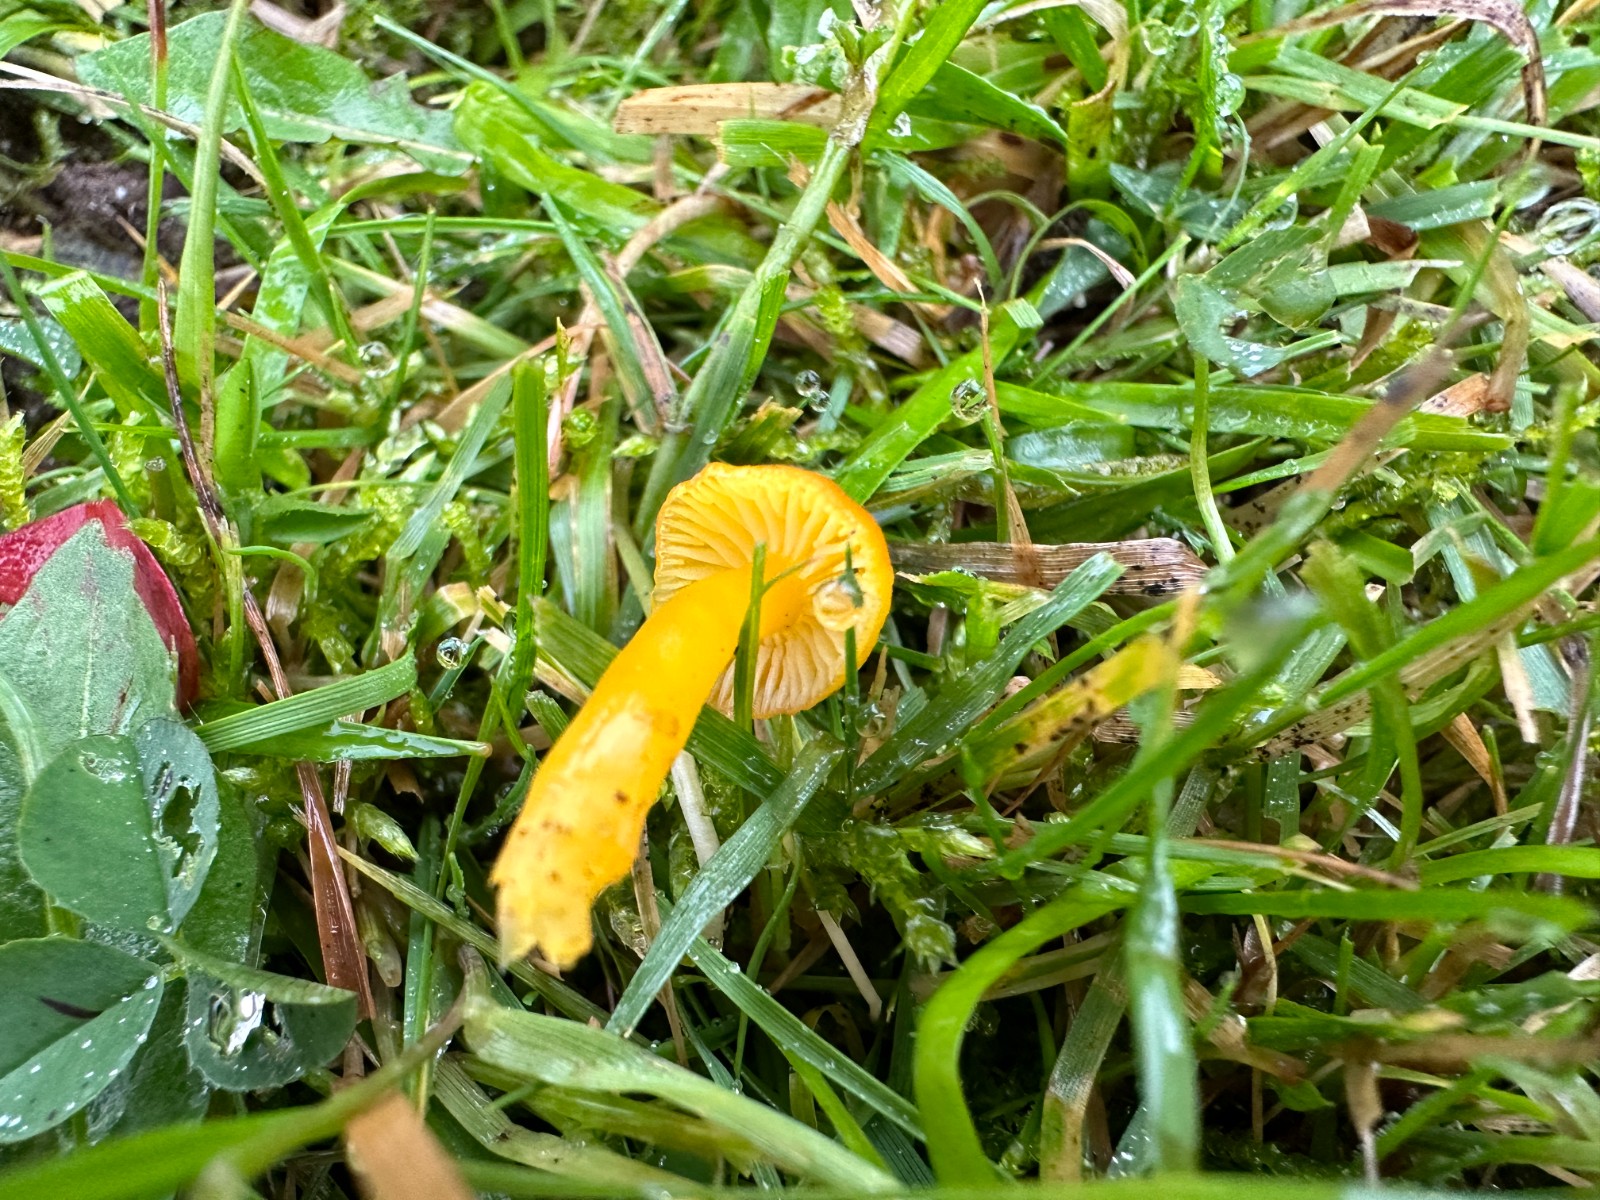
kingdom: Fungi
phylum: Basidiomycota
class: Agaricomycetes
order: Agaricales
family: Hygrophoraceae
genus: Hygrocybe
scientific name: Hygrocybe ceracea
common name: voksgul vokshat
